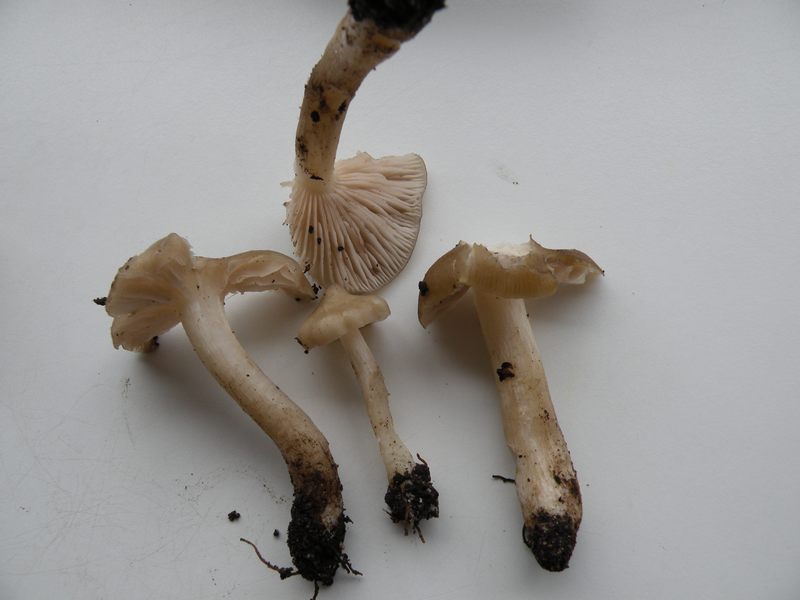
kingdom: Fungi
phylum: Basidiomycota
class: Agaricomycetes
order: Agaricales
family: Entolomataceae
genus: Entoloma
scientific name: Entoloma aprile
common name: maj-rødblad
